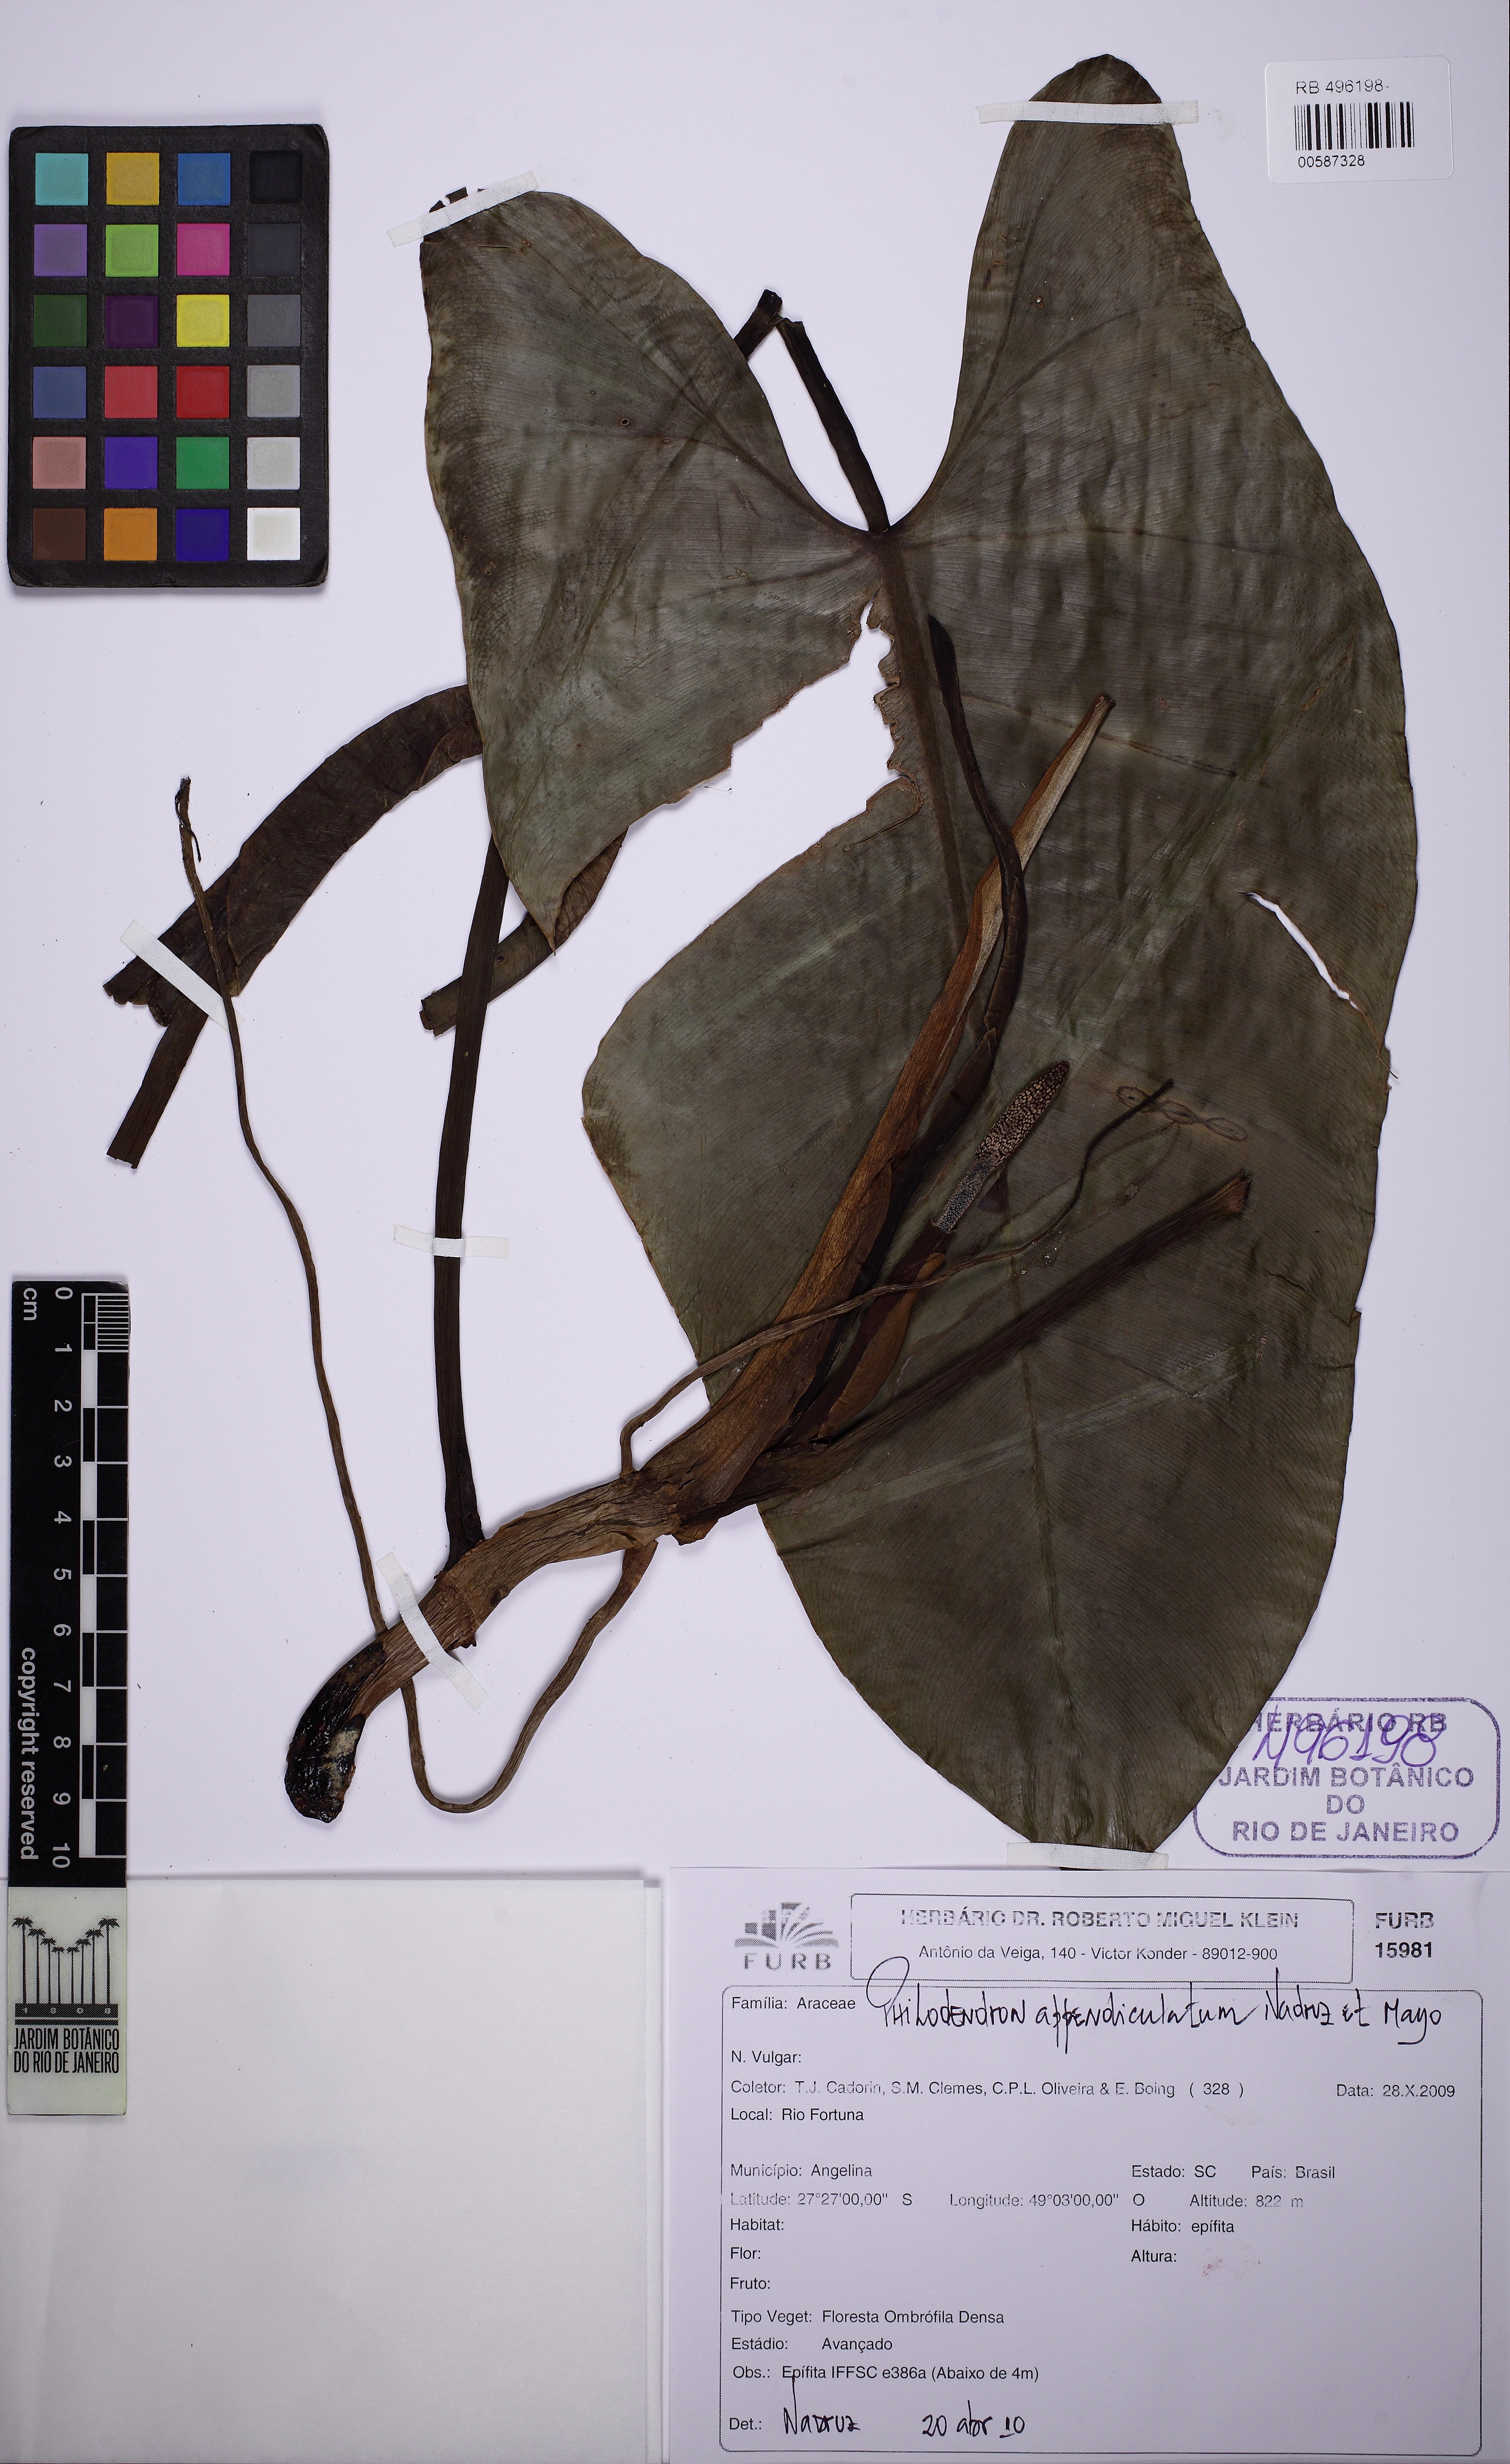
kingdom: Plantae
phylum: Tracheophyta
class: Liliopsida
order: Alismatales
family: Araceae
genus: Philodendron
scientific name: Philodendron appendiculatum
